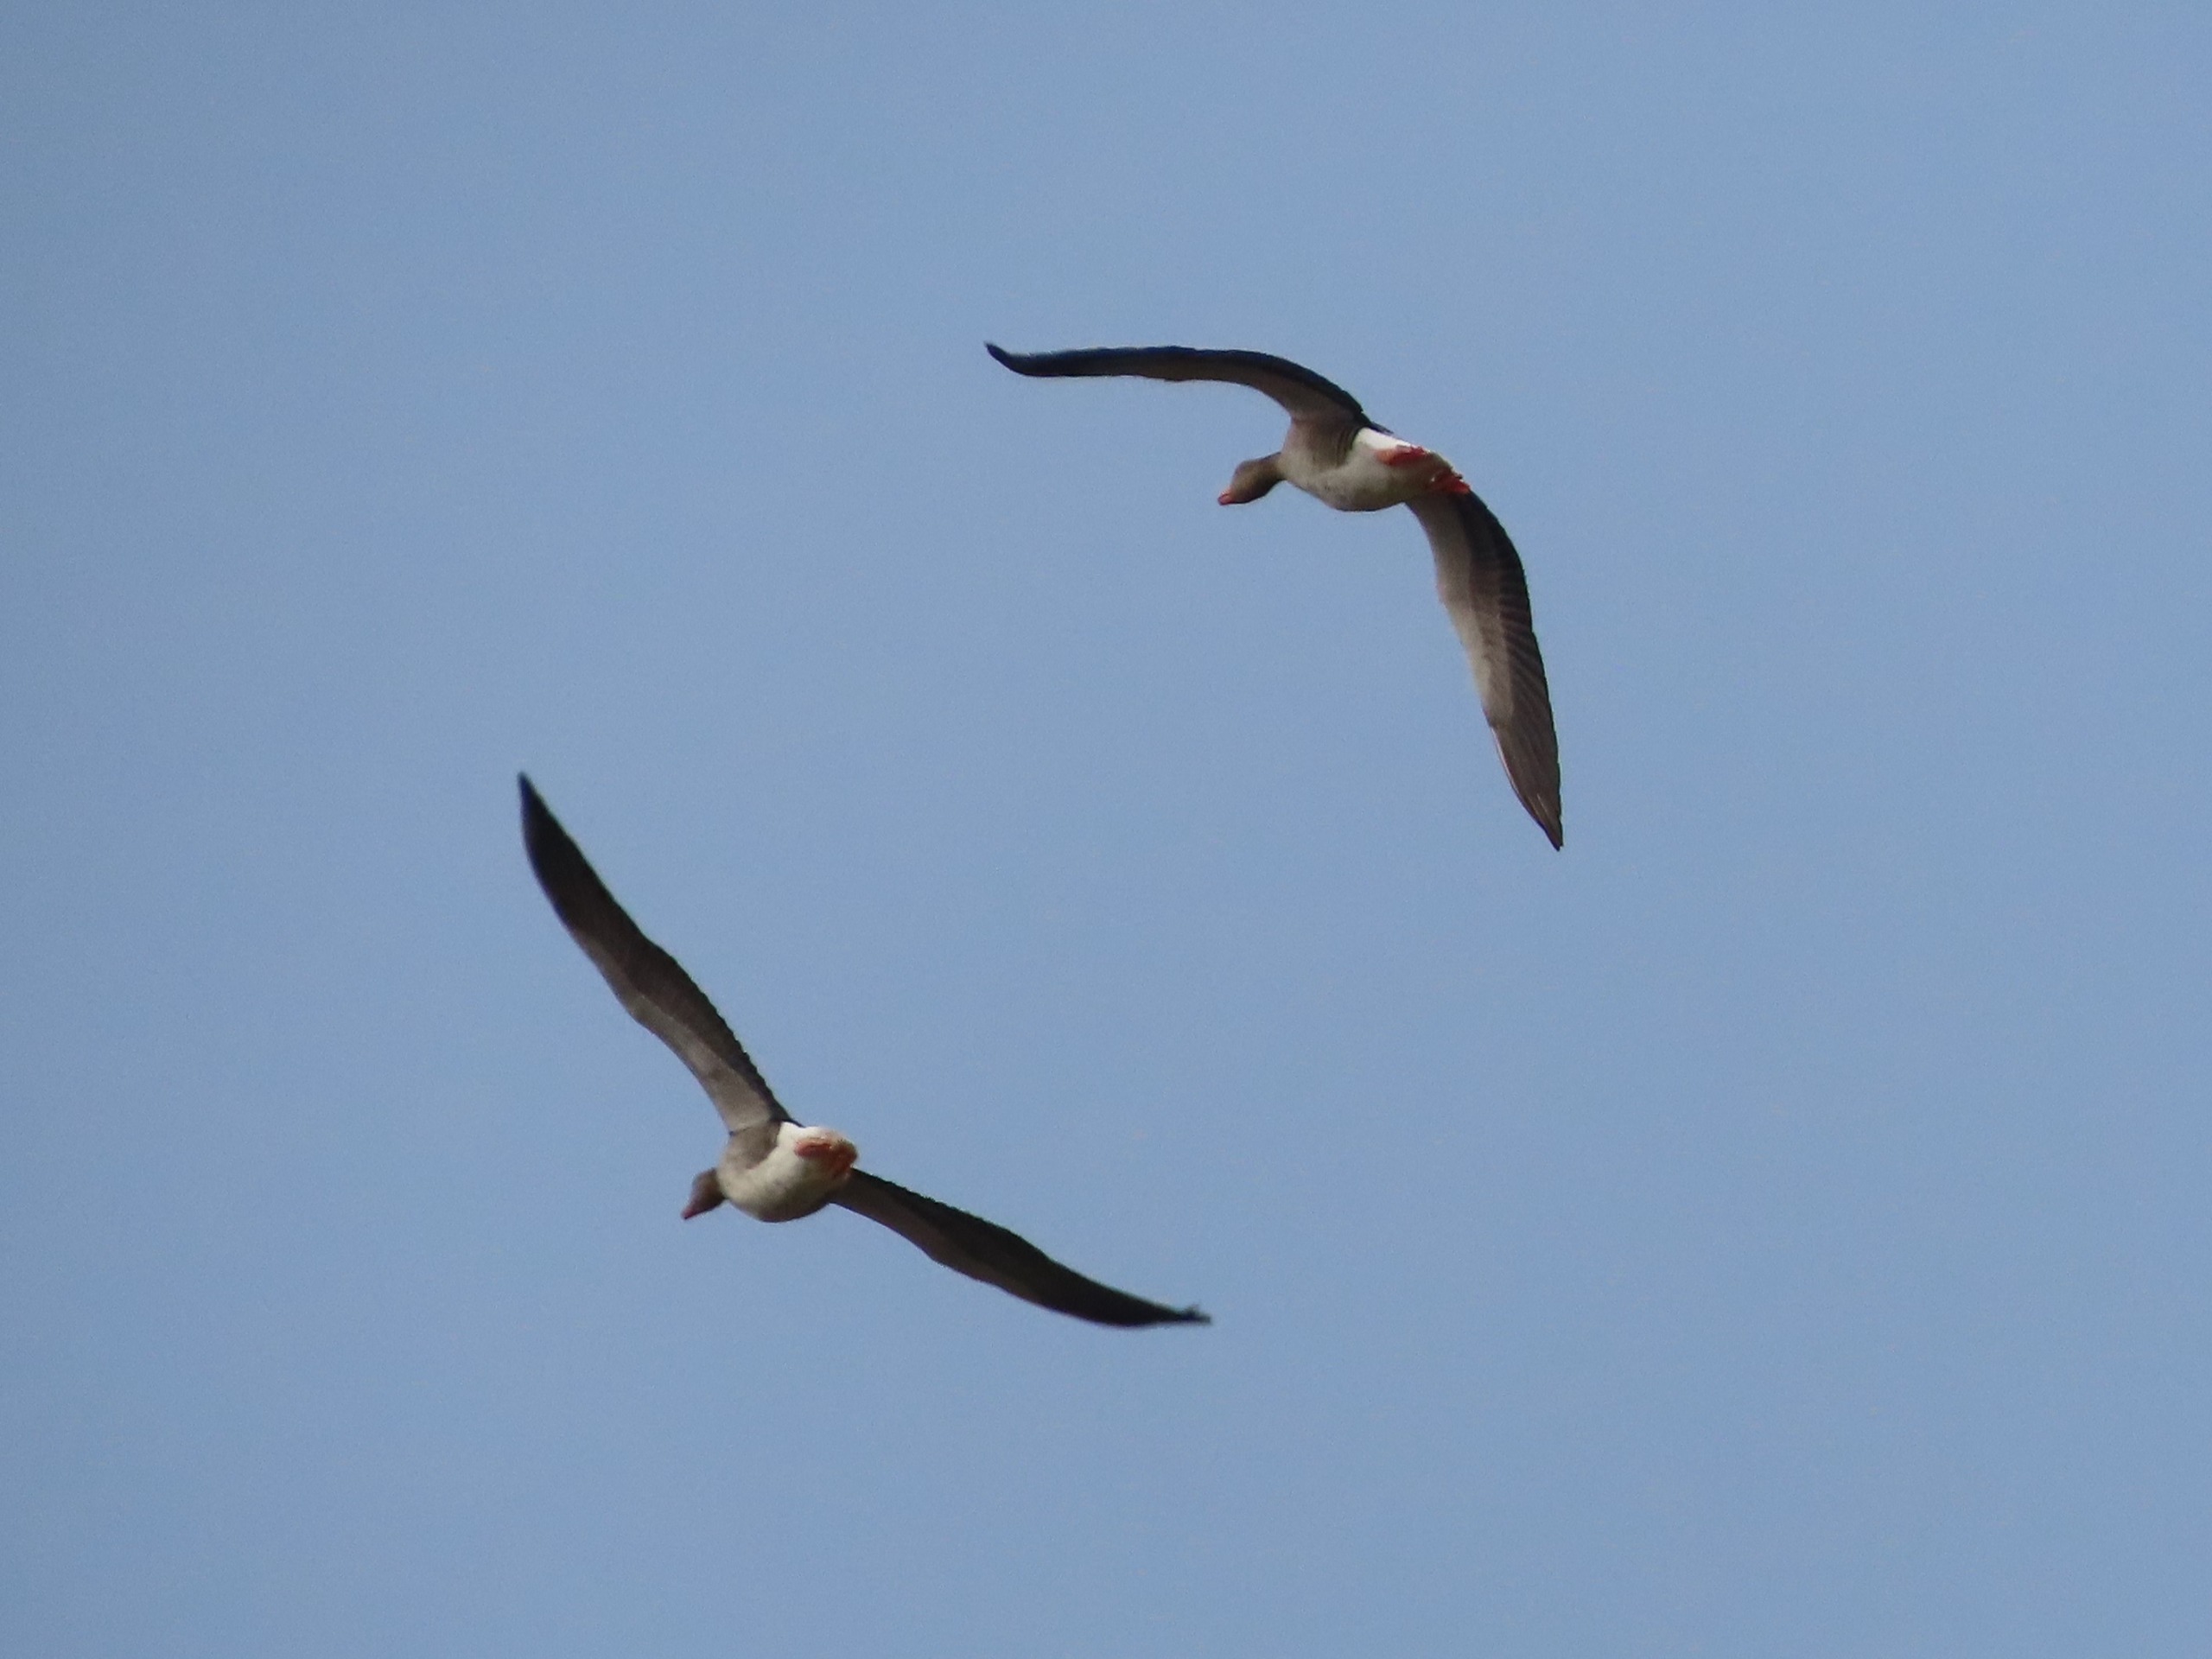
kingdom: Animalia
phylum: Chordata
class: Aves
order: Anseriformes
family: Anatidae
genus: Anser
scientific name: Anser anser
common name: Grågås
